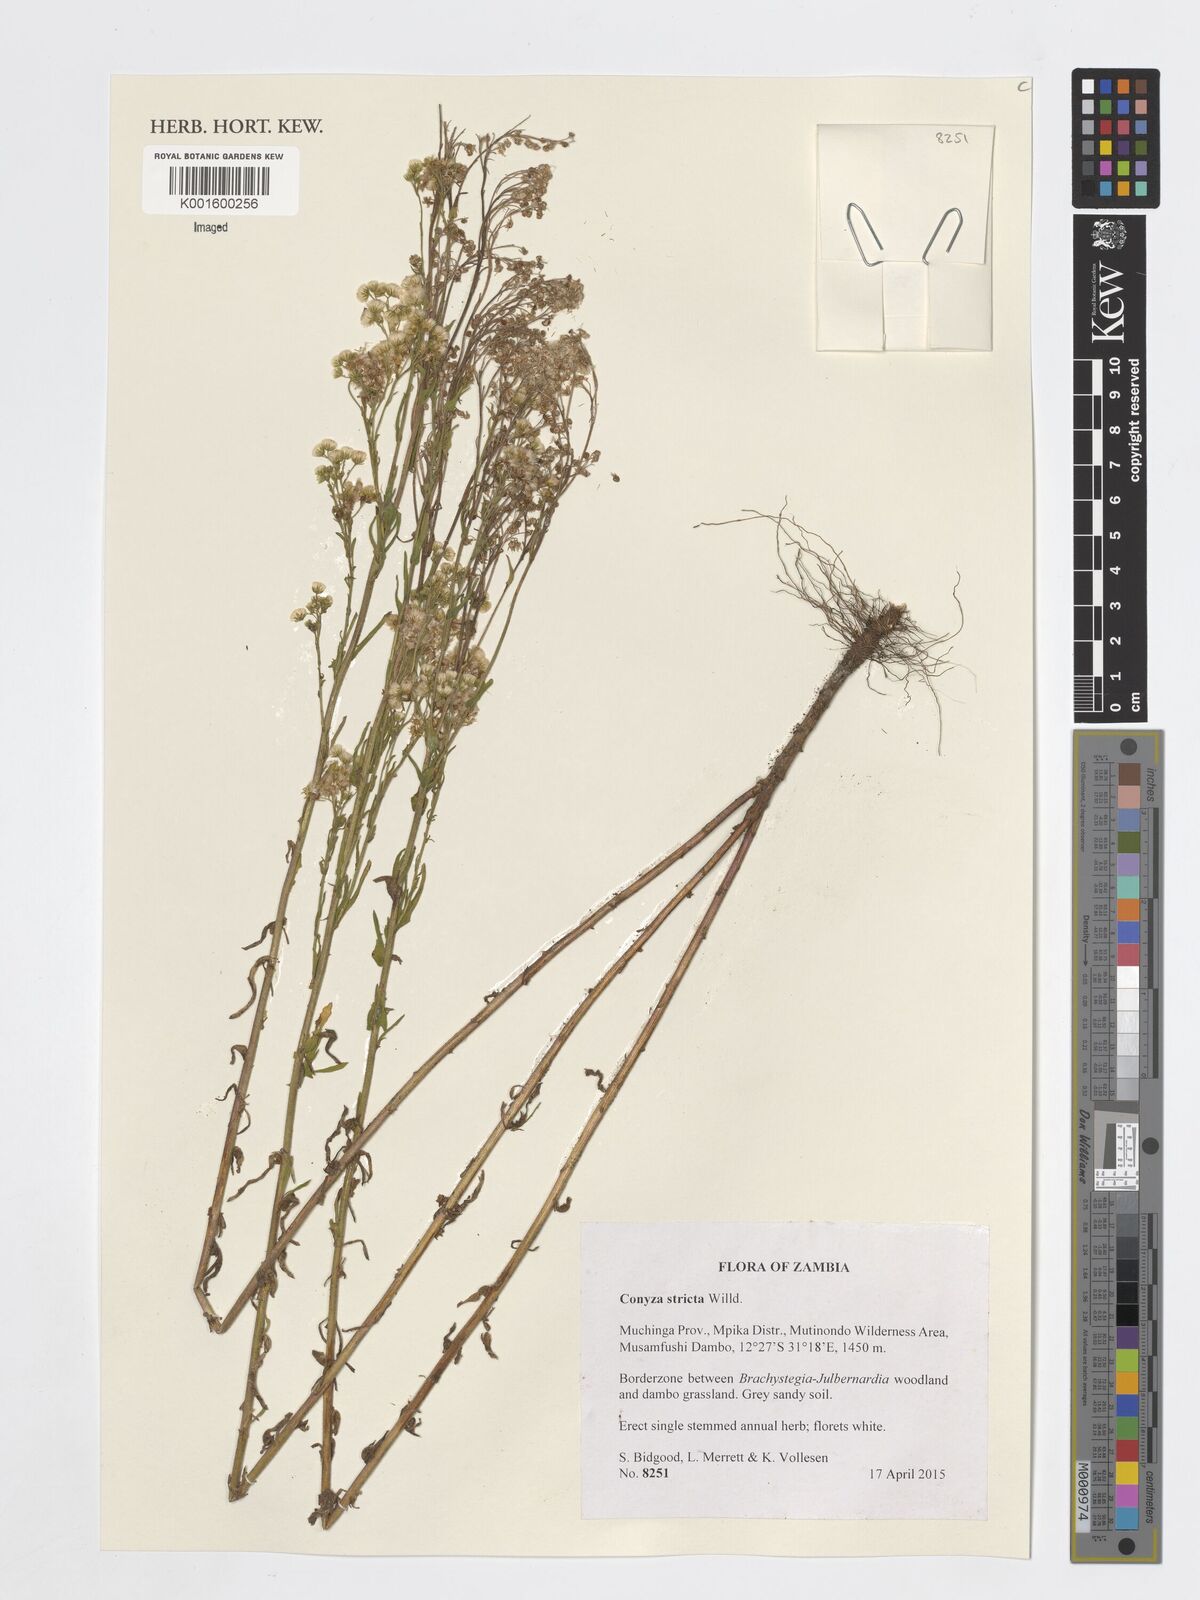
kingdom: Plantae
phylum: Tracheophyta
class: Magnoliopsida
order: Asterales
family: Asteraceae
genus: Nidorella
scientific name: Nidorella triloba
